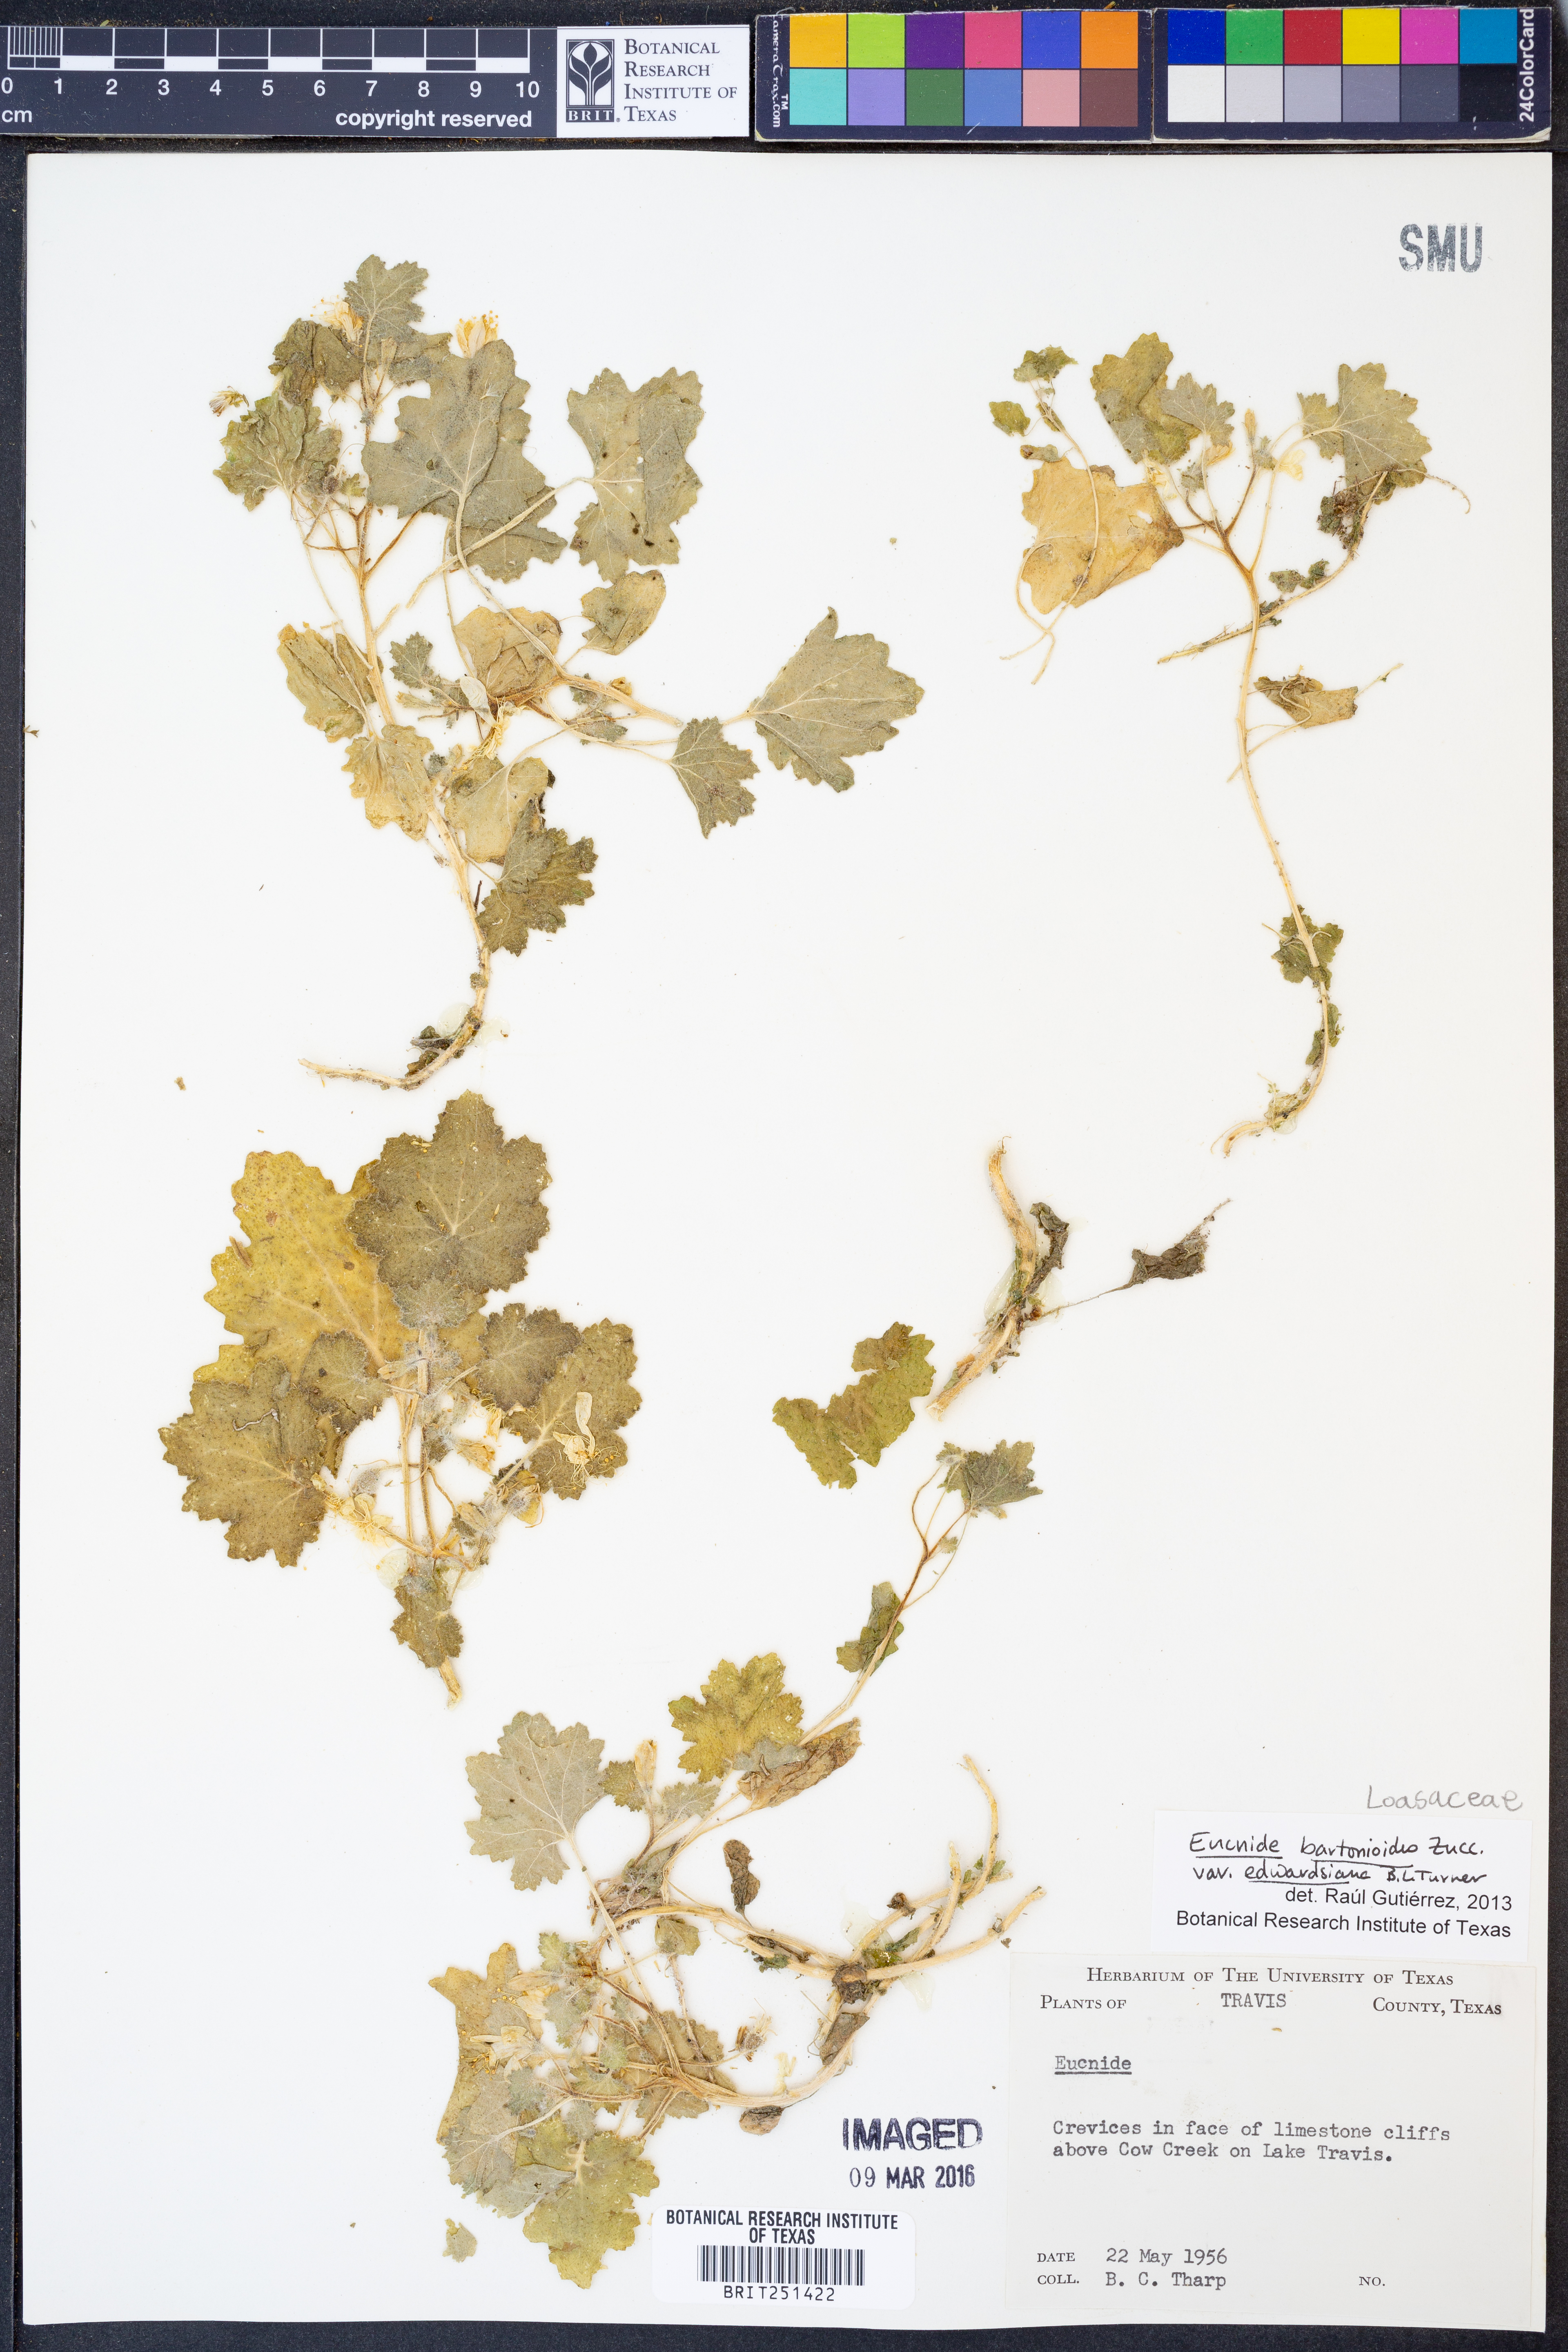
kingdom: Plantae
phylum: Tracheophyta
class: Magnoliopsida
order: Cornales
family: Loasaceae
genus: Eucnide
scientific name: Eucnide bartonioides
